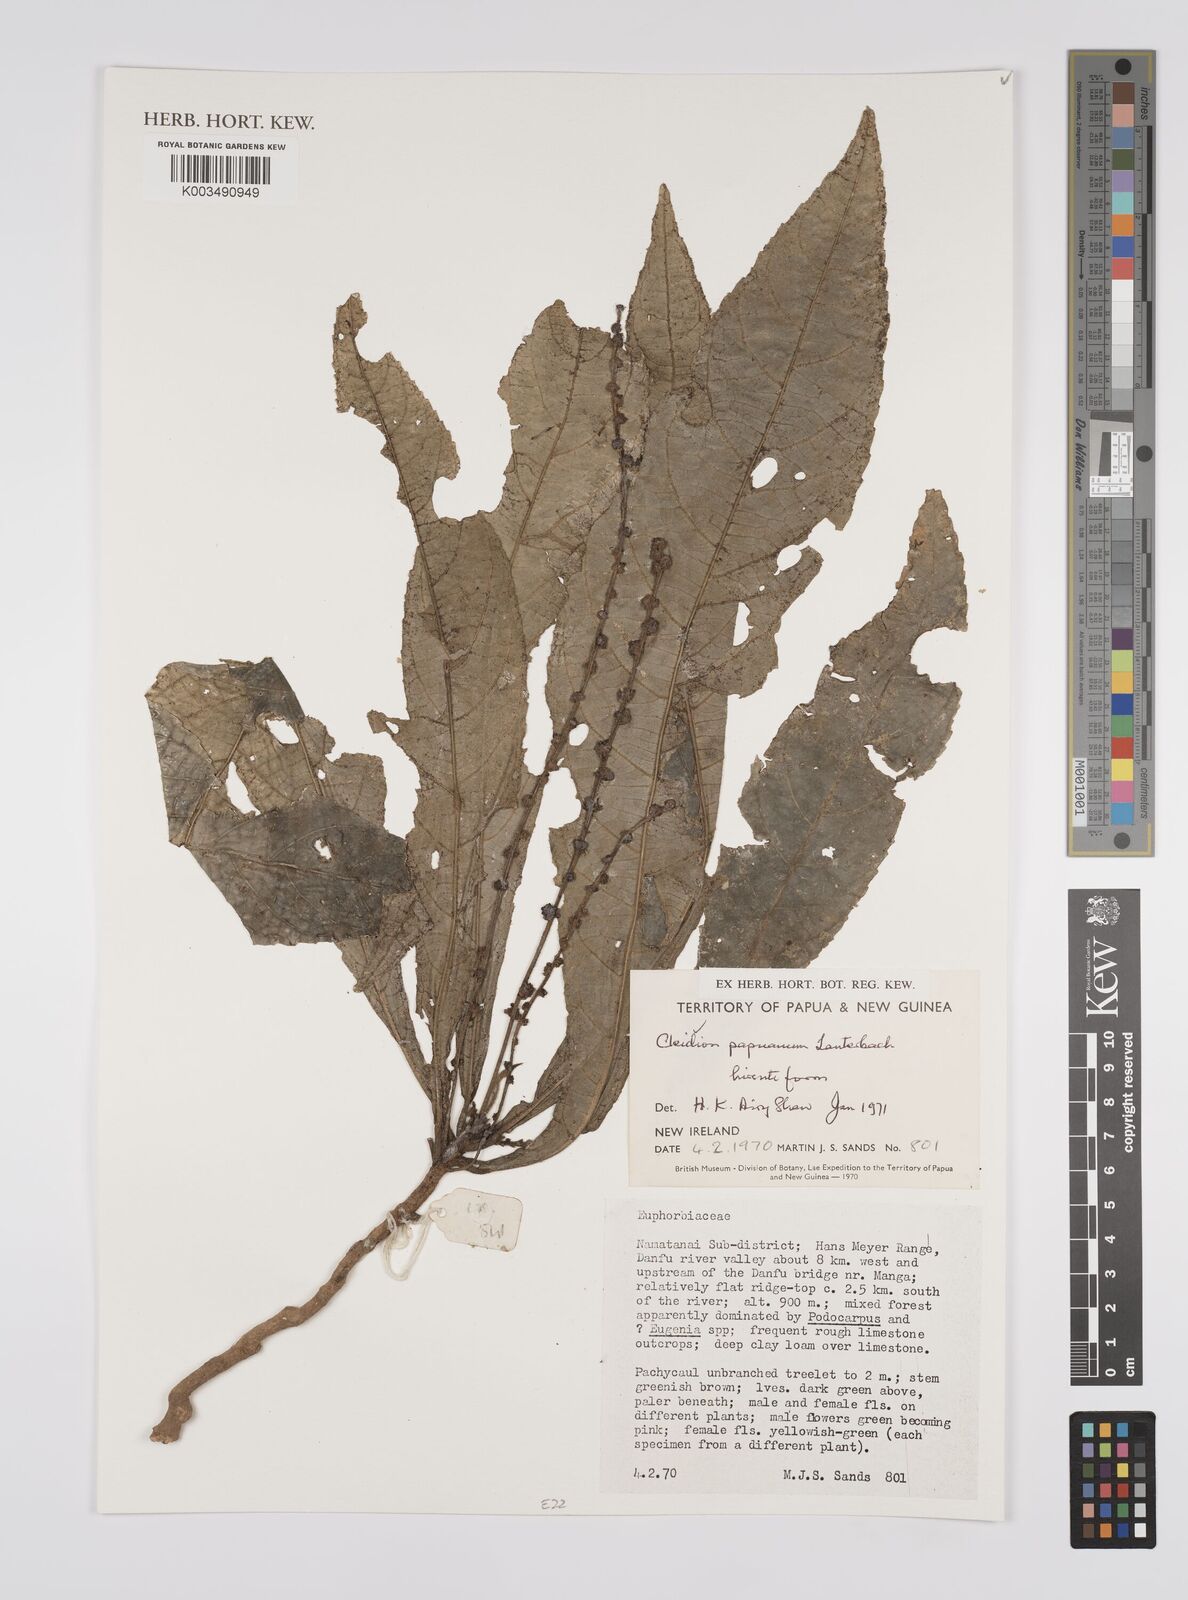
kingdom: Plantae
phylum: Tracheophyta
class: Magnoliopsida
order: Malpighiales
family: Euphorbiaceae
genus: Cleidion
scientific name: Cleidion papuanum
